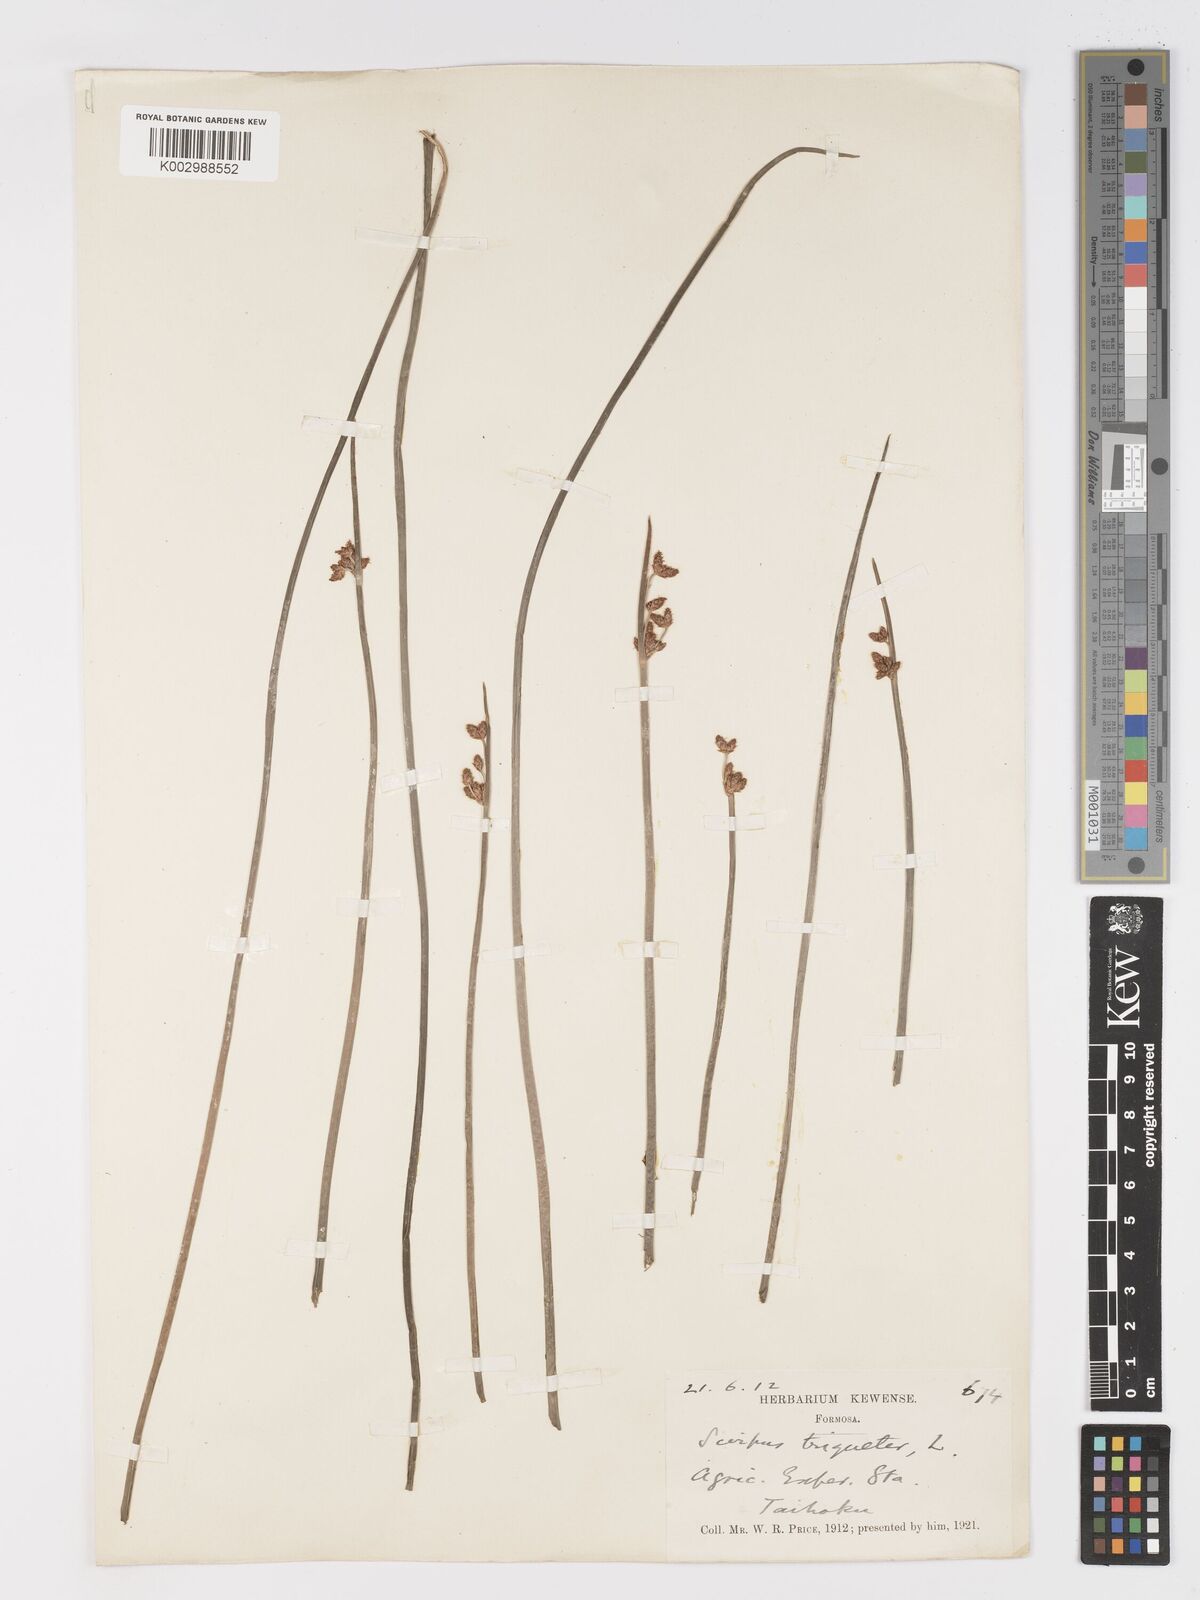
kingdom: Plantae
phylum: Tracheophyta
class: Liliopsida
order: Poales
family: Cyperaceae
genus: Schoenoplectus
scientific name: Schoenoplectus triqueter
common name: Triangular club-rush
